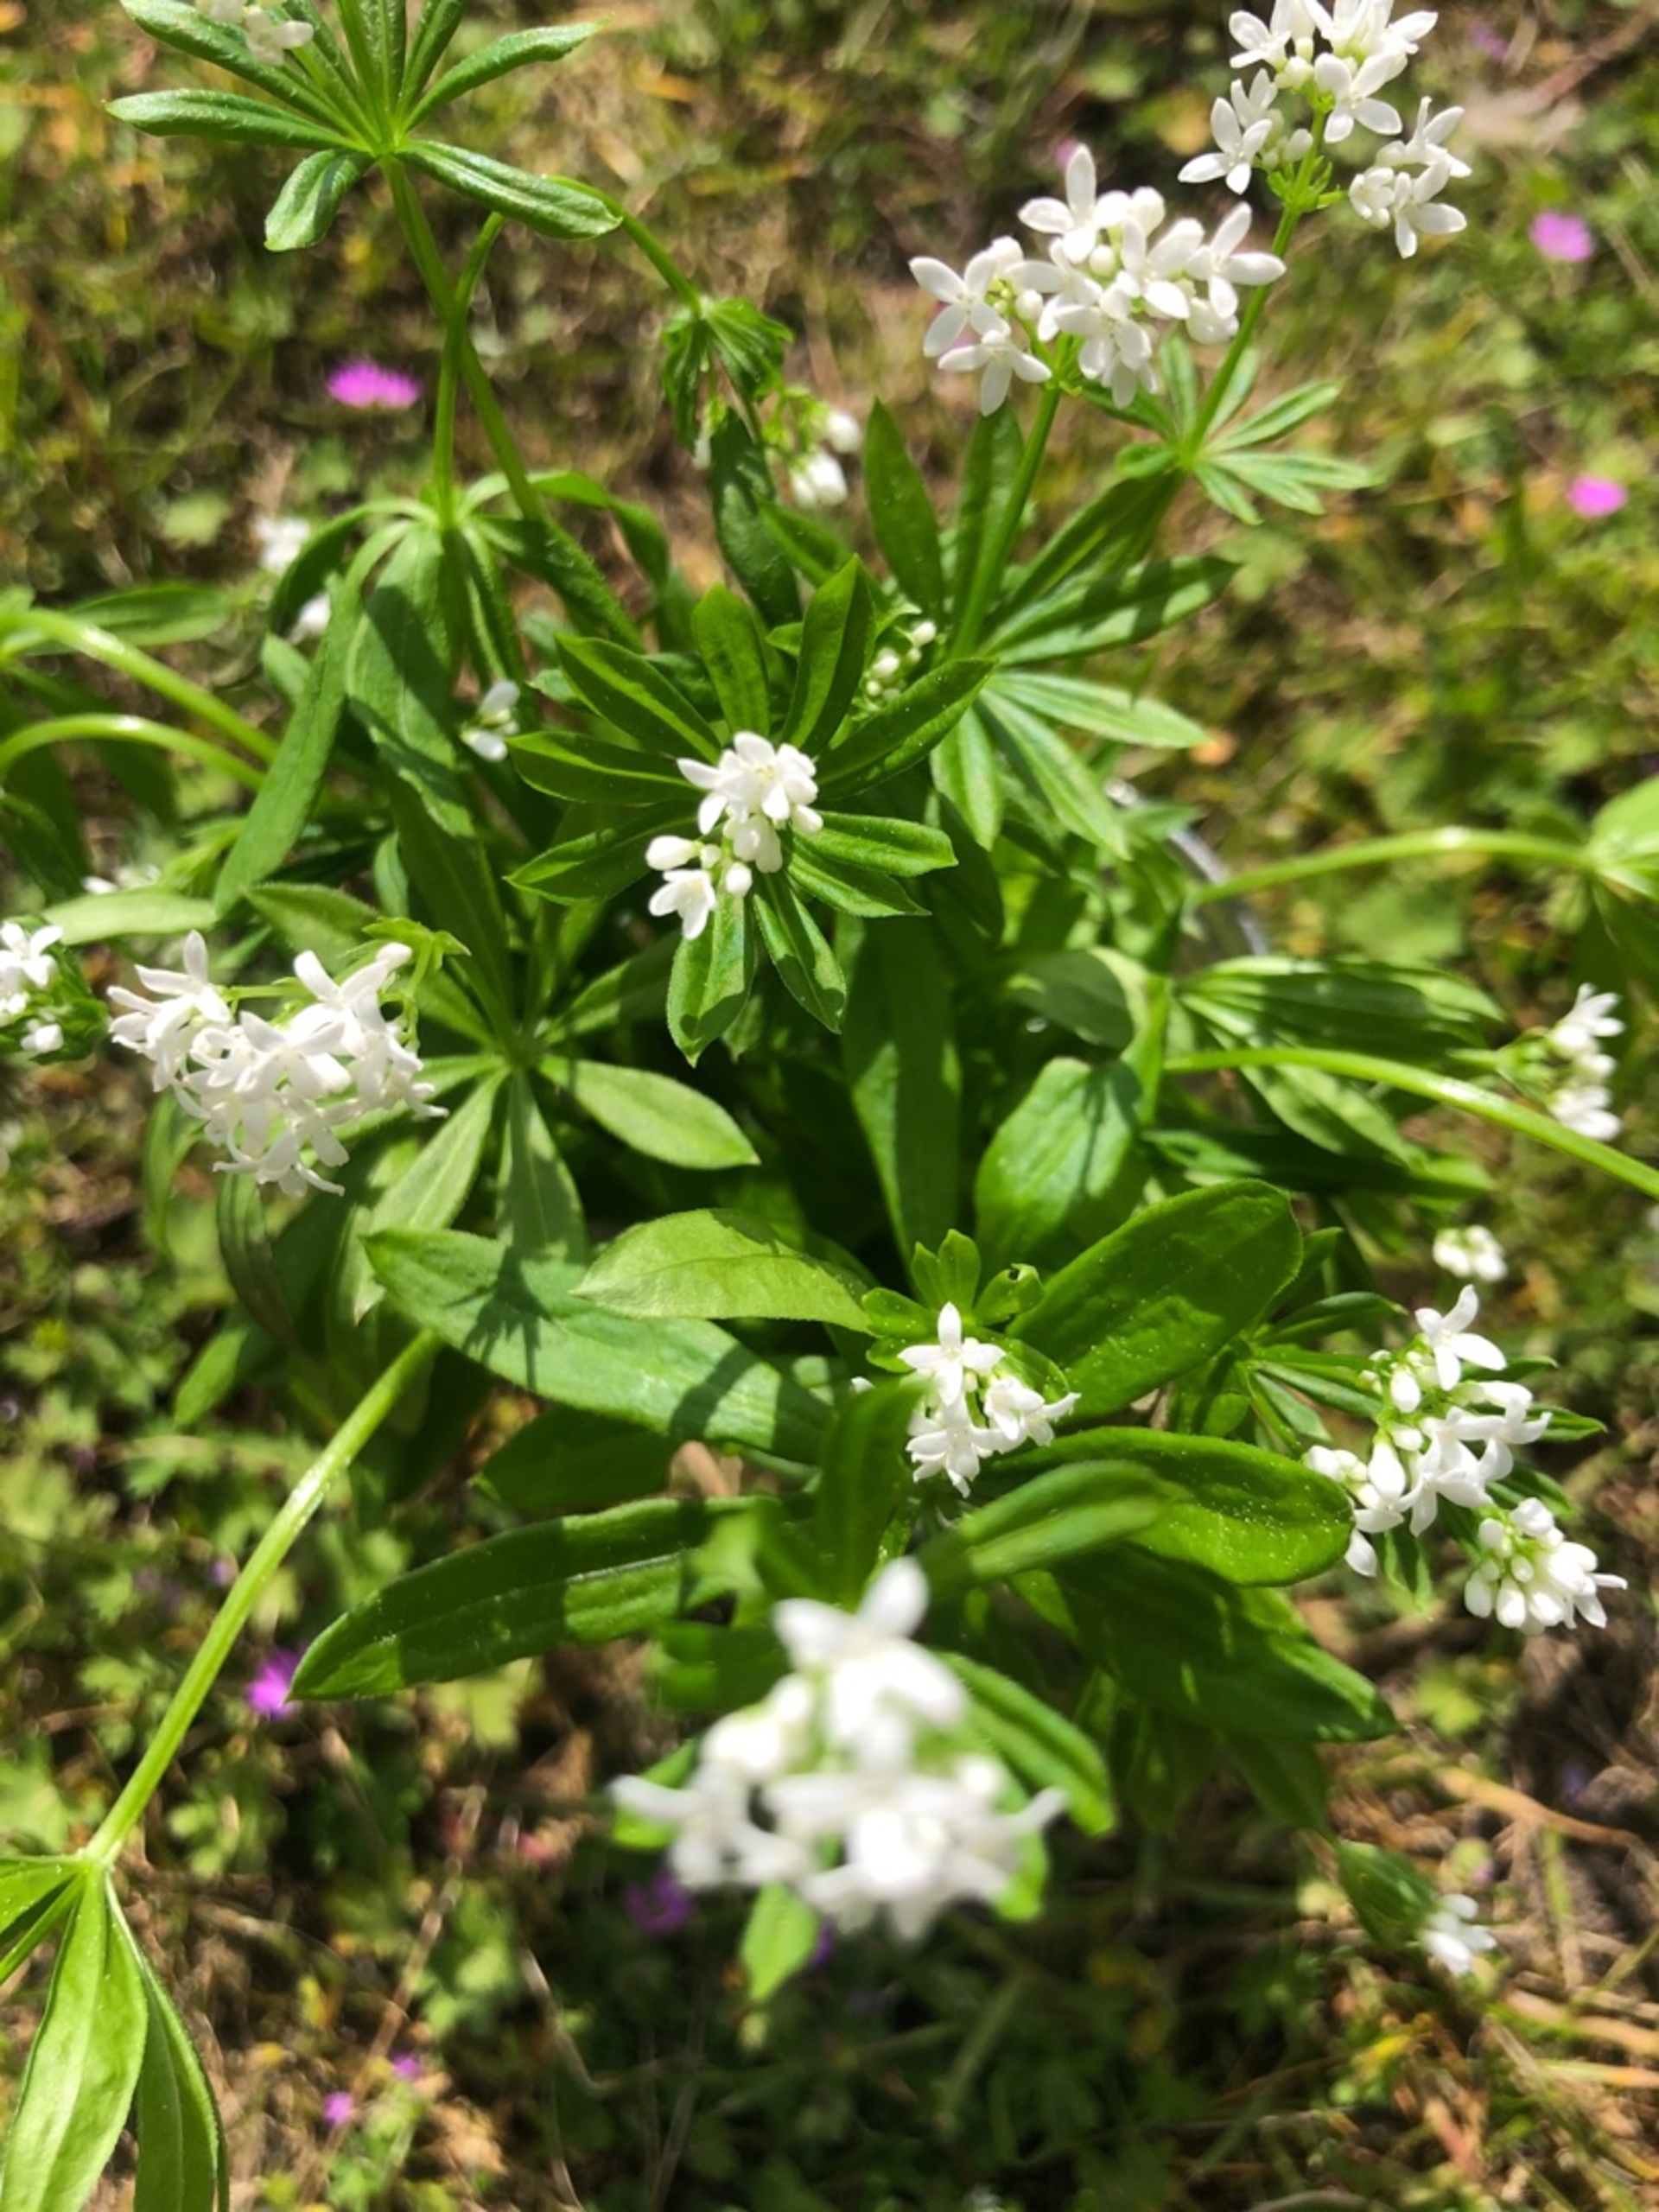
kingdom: Plantae
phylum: Tracheophyta
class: Magnoliopsida
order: Gentianales
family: Rubiaceae
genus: Galium
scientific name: Galium odoratum
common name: Skovmærke
